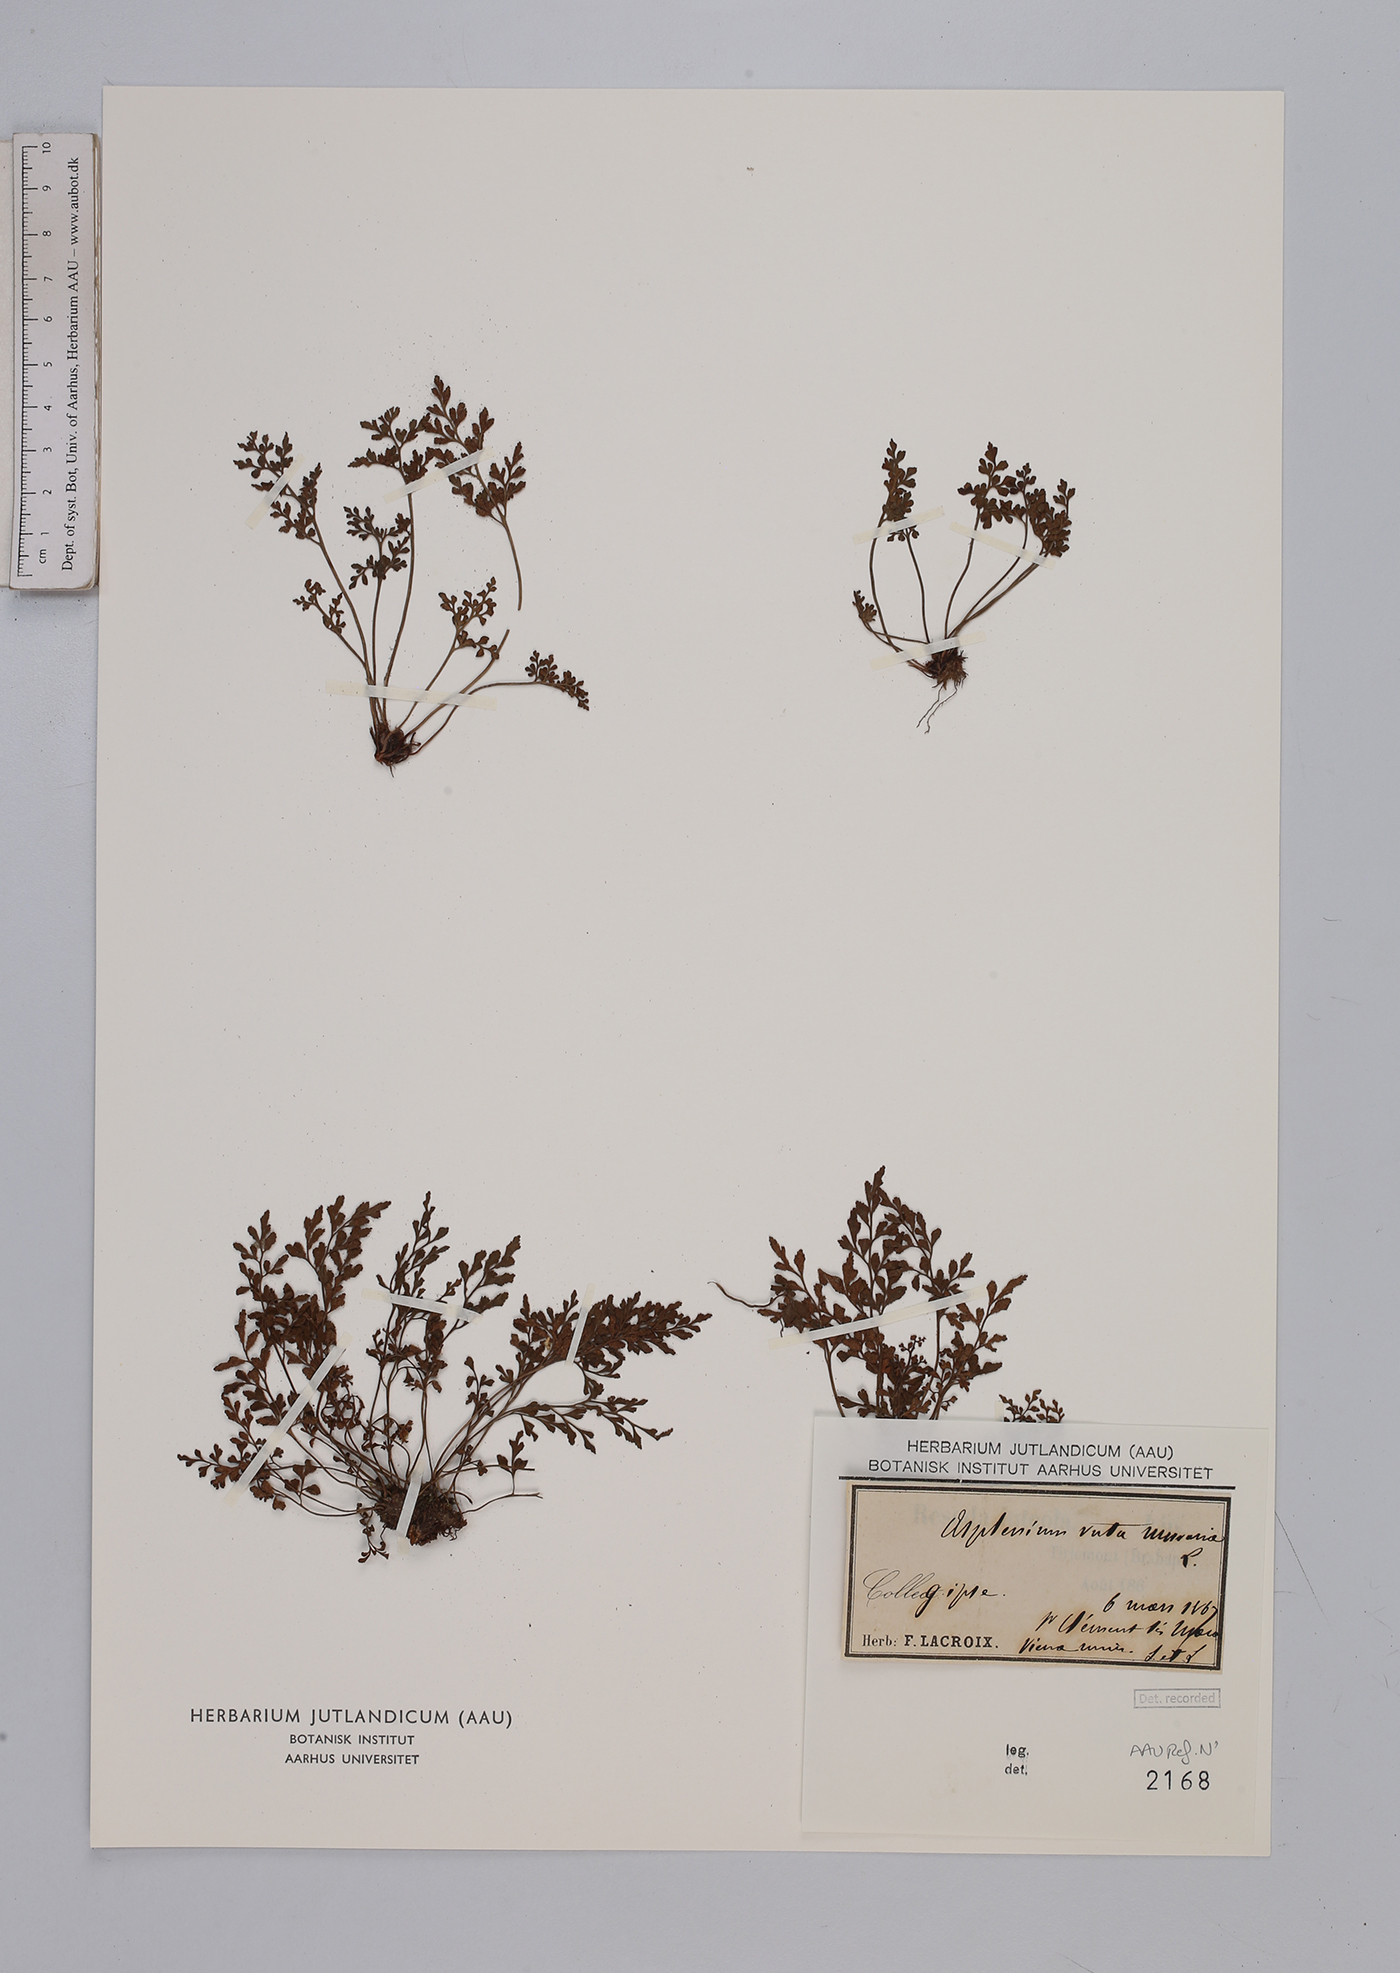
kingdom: Plantae
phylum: Tracheophyta
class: Polypodiopsida
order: Polypodiales
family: Aspleniaceae
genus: Asplenium
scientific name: Asplenium ruta-muraria
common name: Wall-rue
